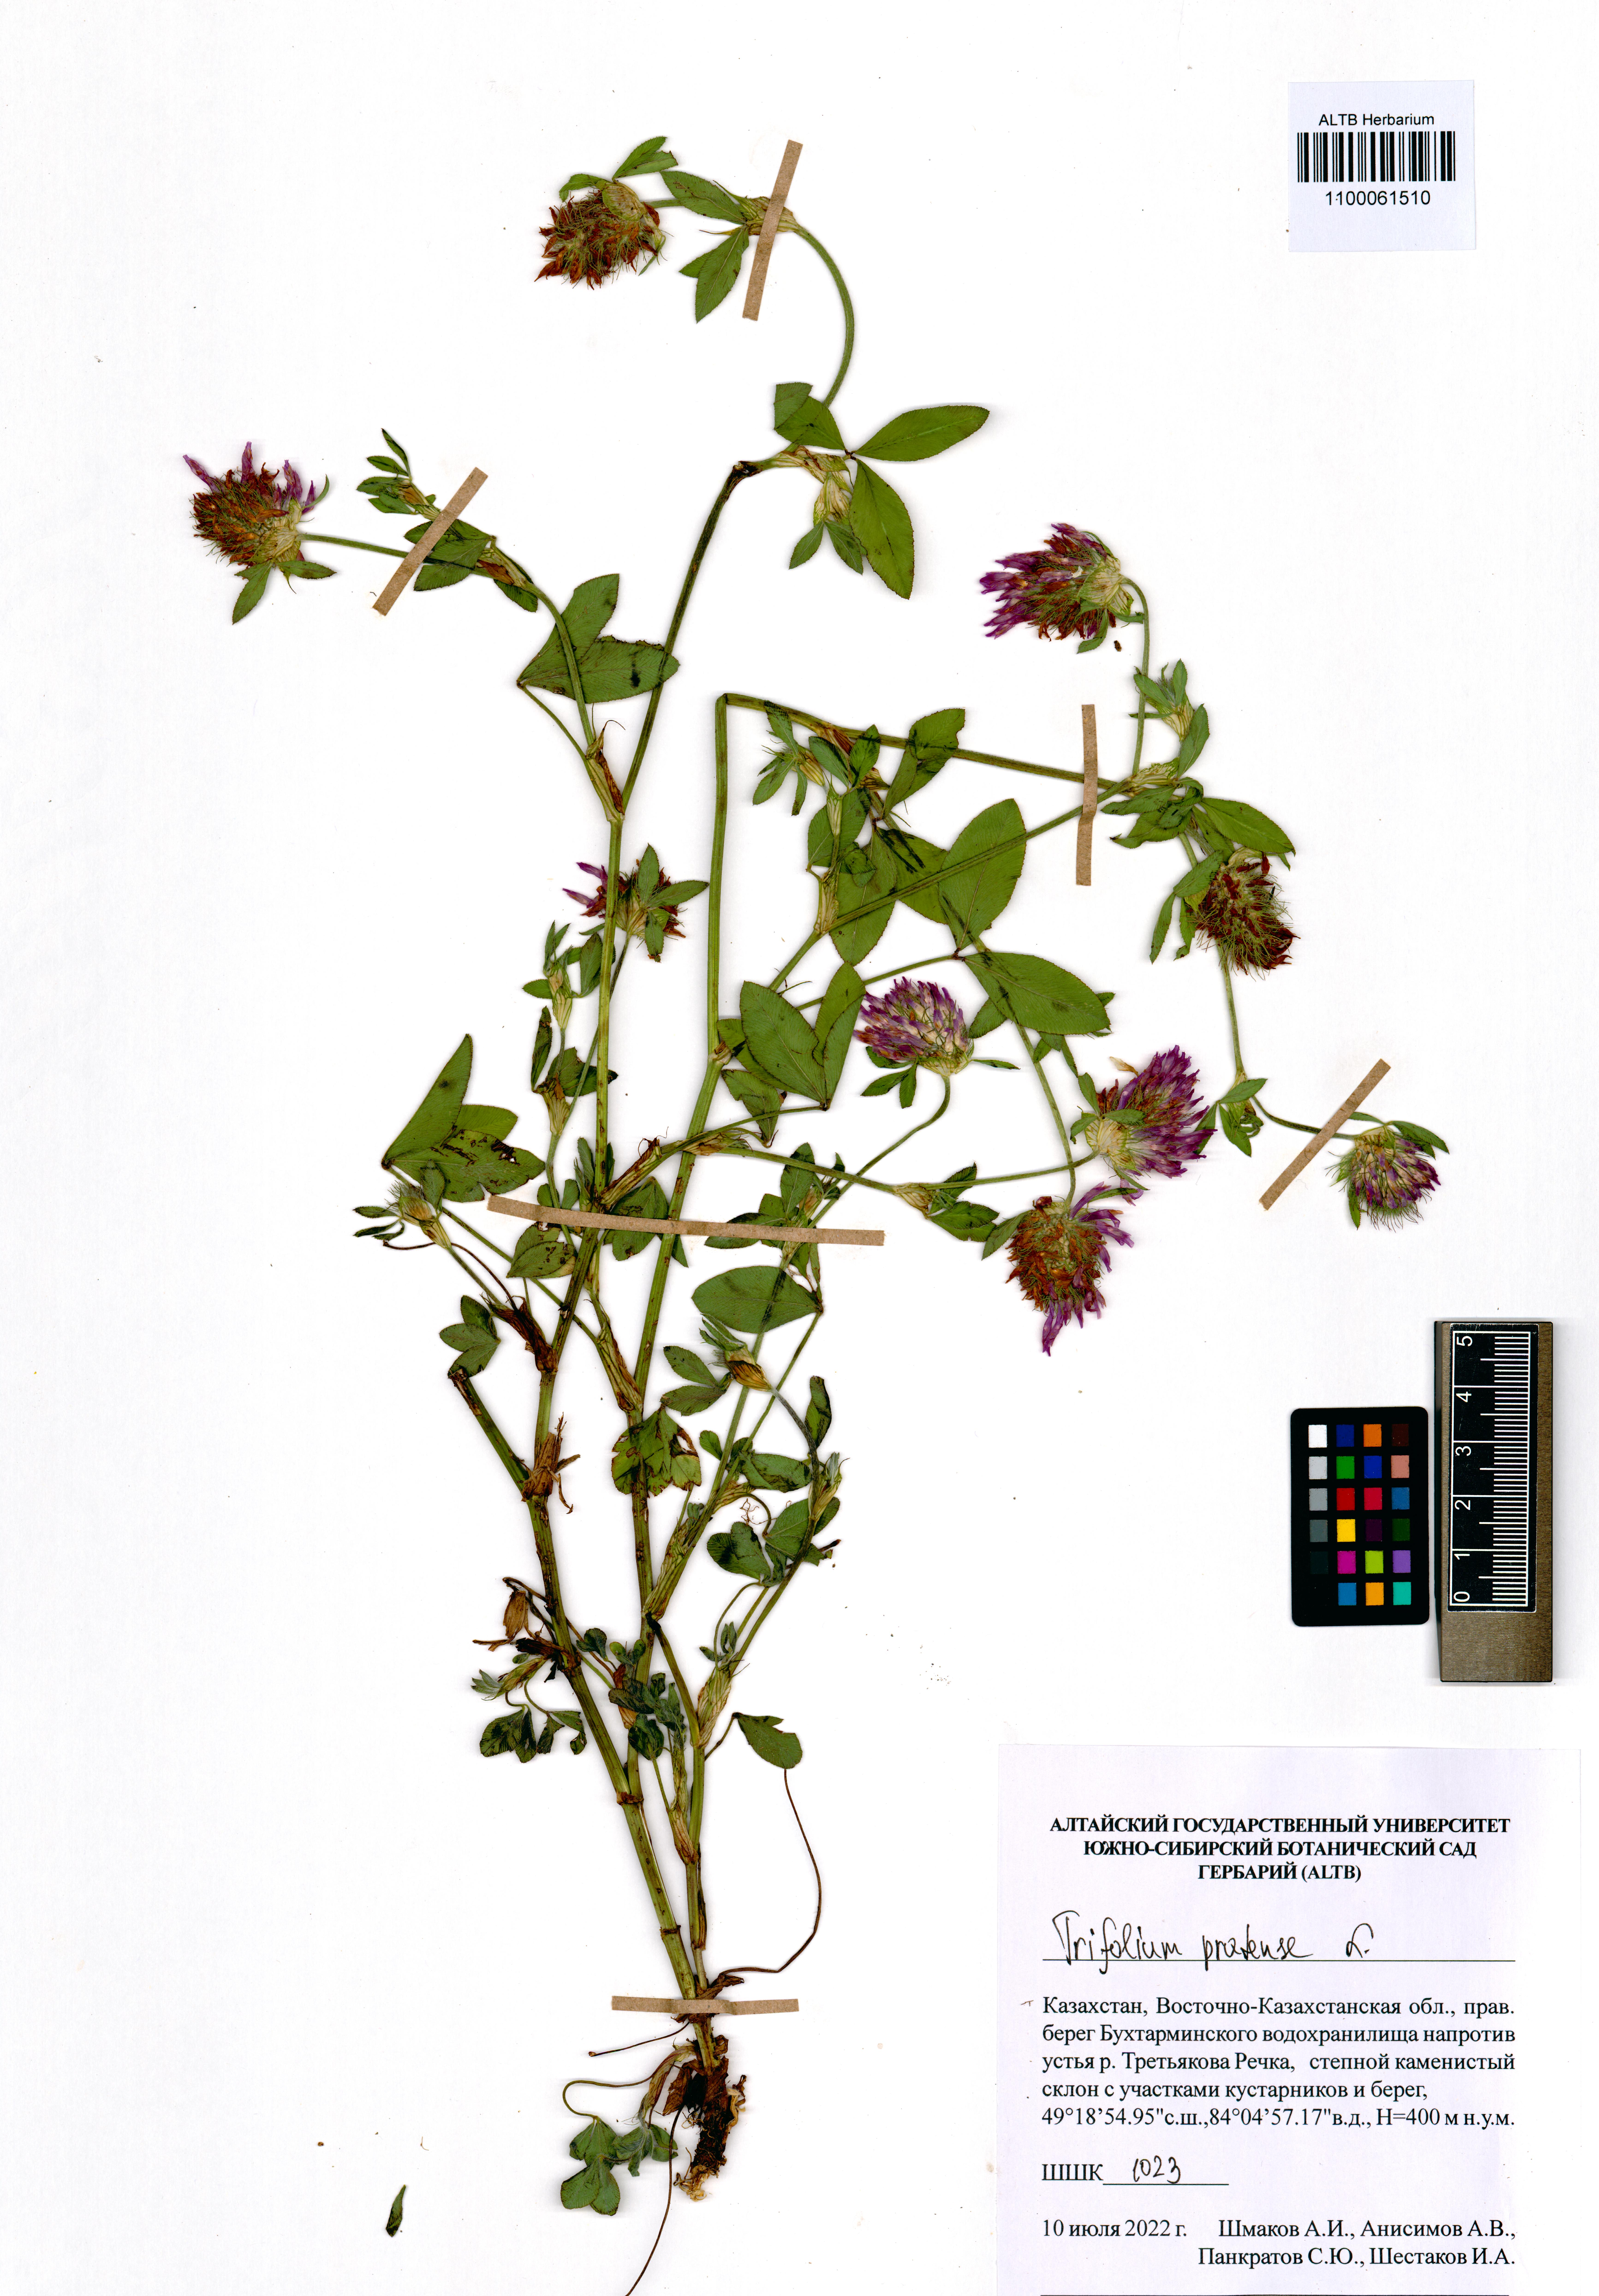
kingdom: Plantae
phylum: Tracheophyta
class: Magnoliopsida
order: Fabales
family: Fabaceae
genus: Trifolium
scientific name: Trifolium pratense
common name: Red clover
